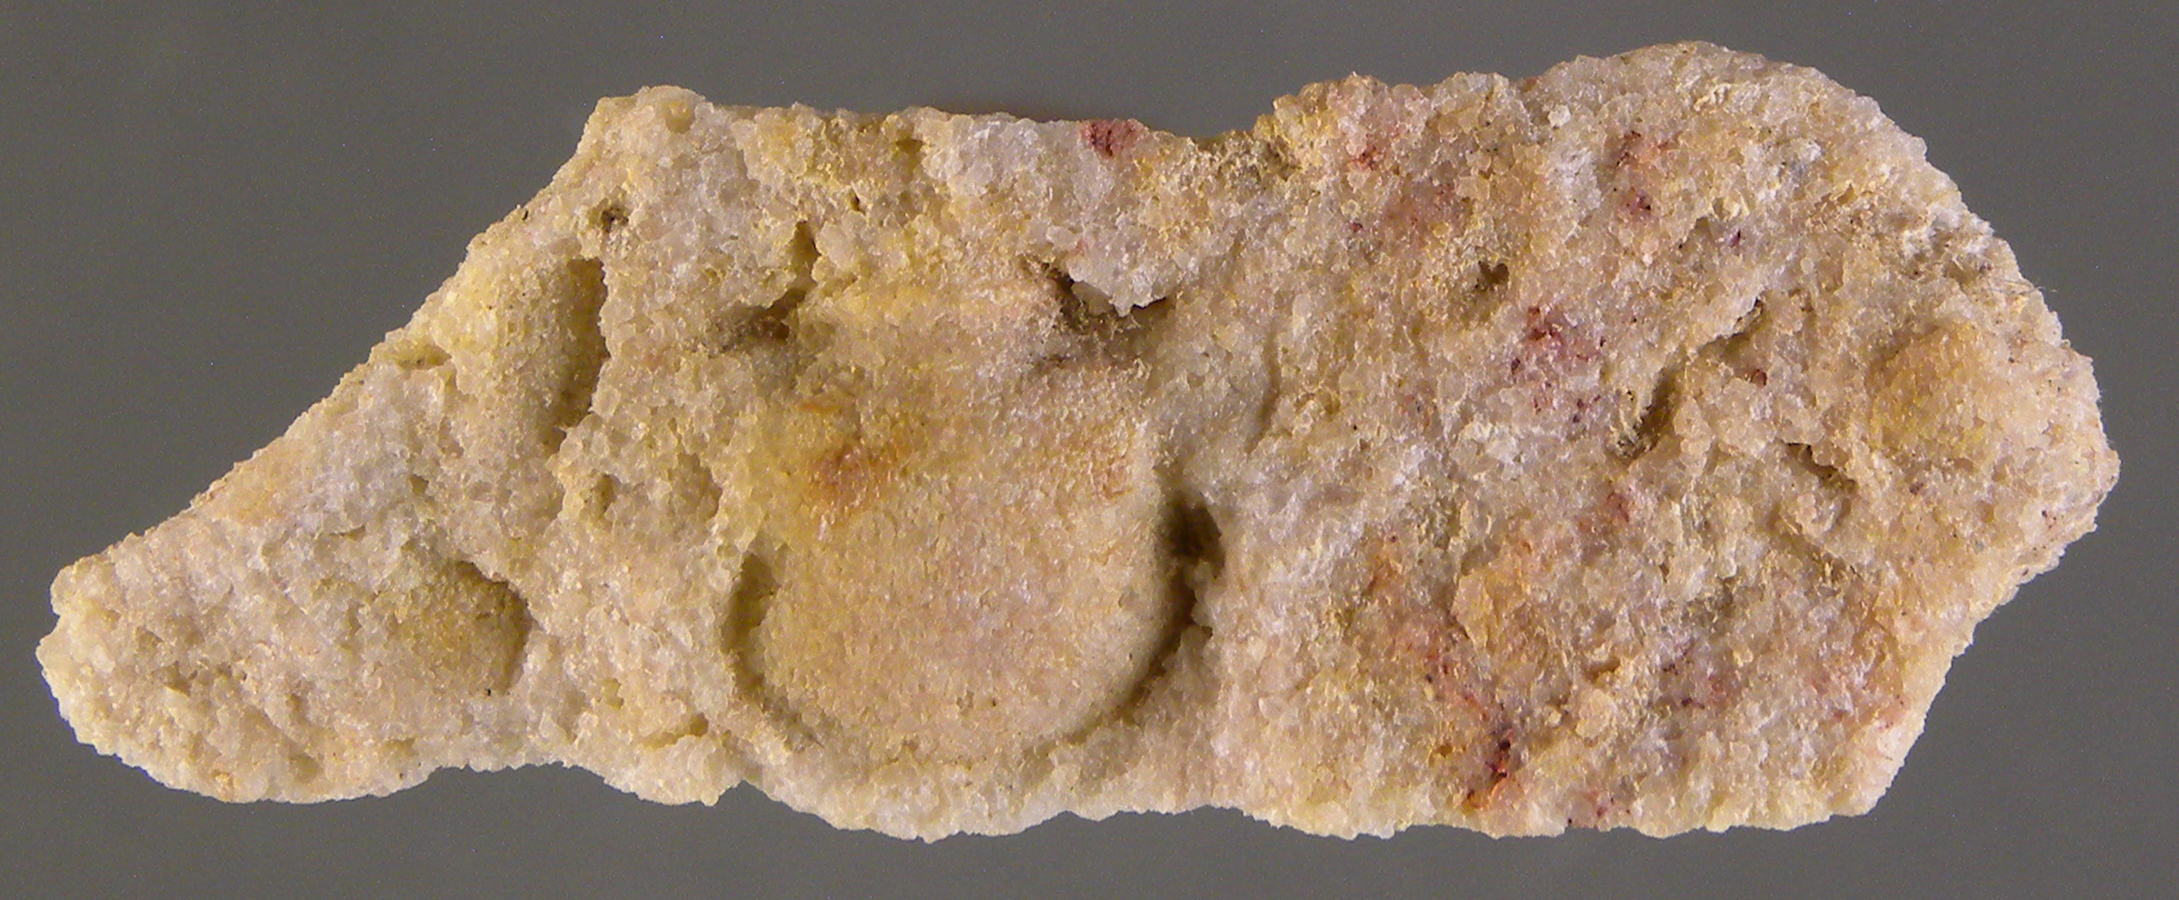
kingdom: Animalia
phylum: Arthropoda
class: Trilobita
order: Phacopida
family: Acastidae
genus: Acastava
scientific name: Acastava
